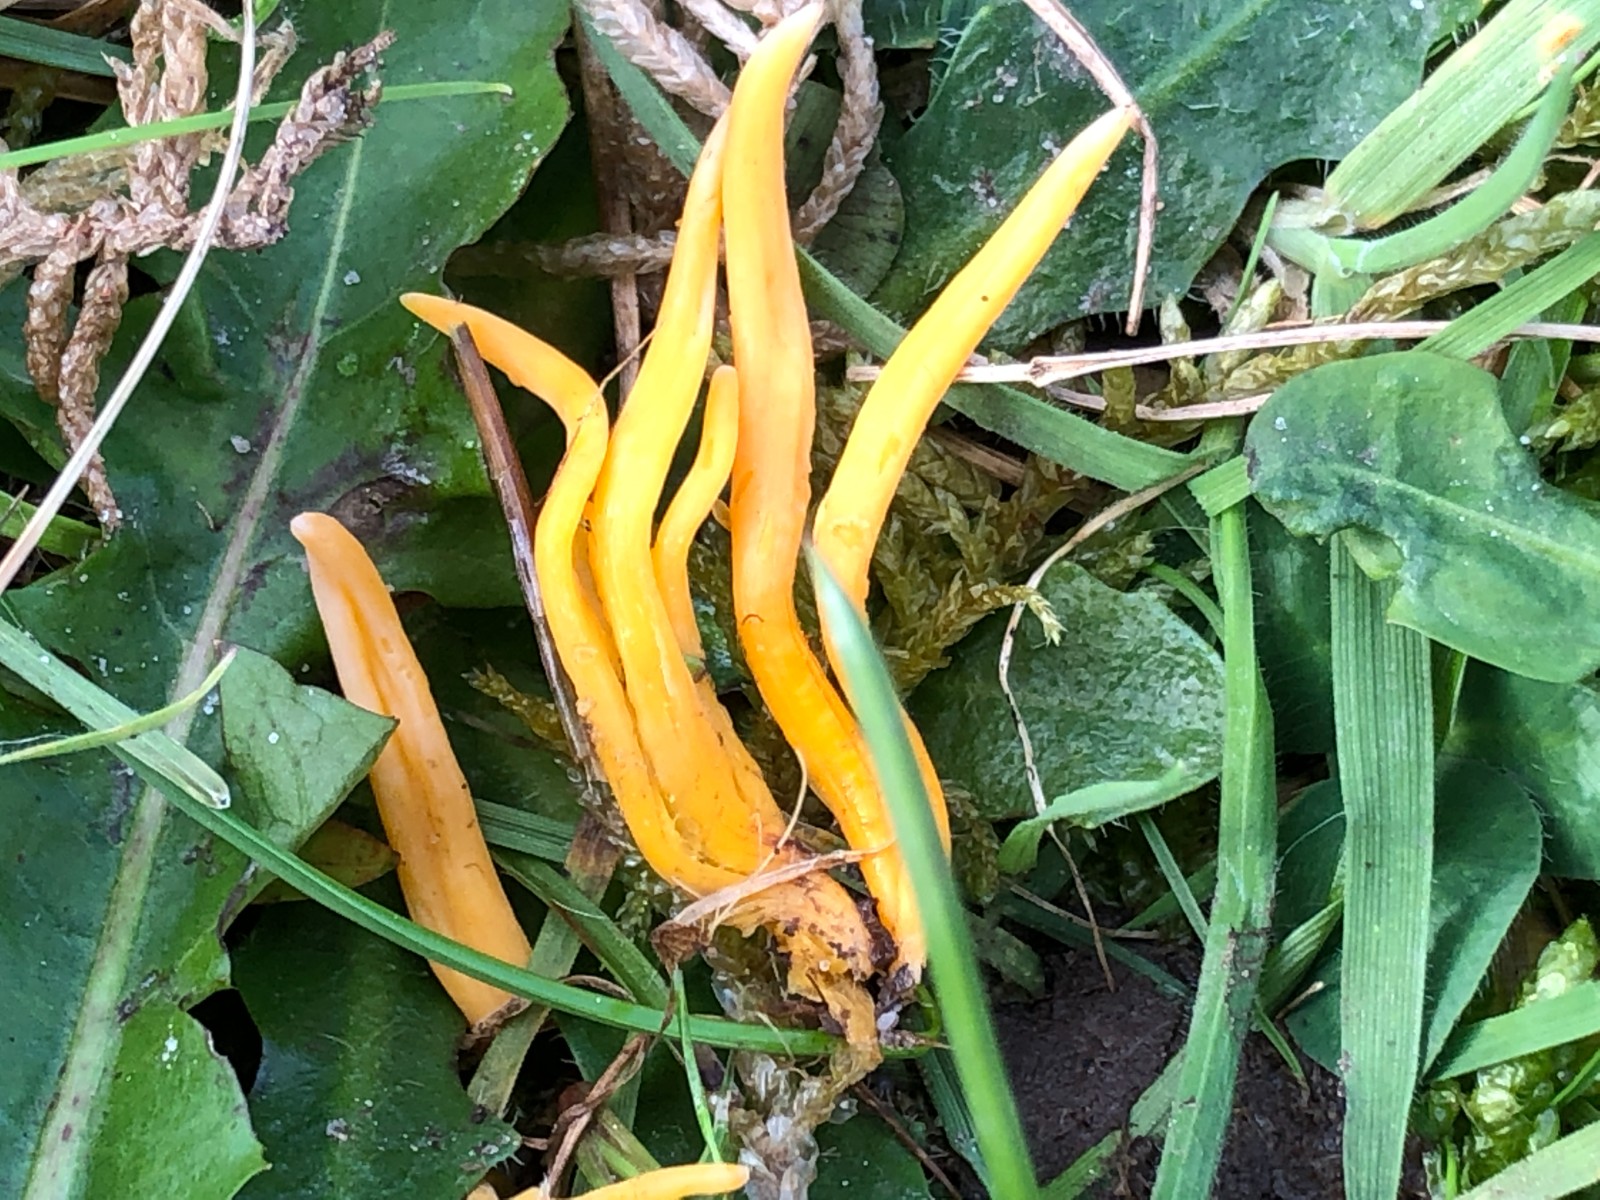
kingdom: Fungi
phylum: Basidiomycota
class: Agaricomycetes
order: Agaricales
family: Clavariaceae
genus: Clavulinopsis
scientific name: Clavulinopsis
